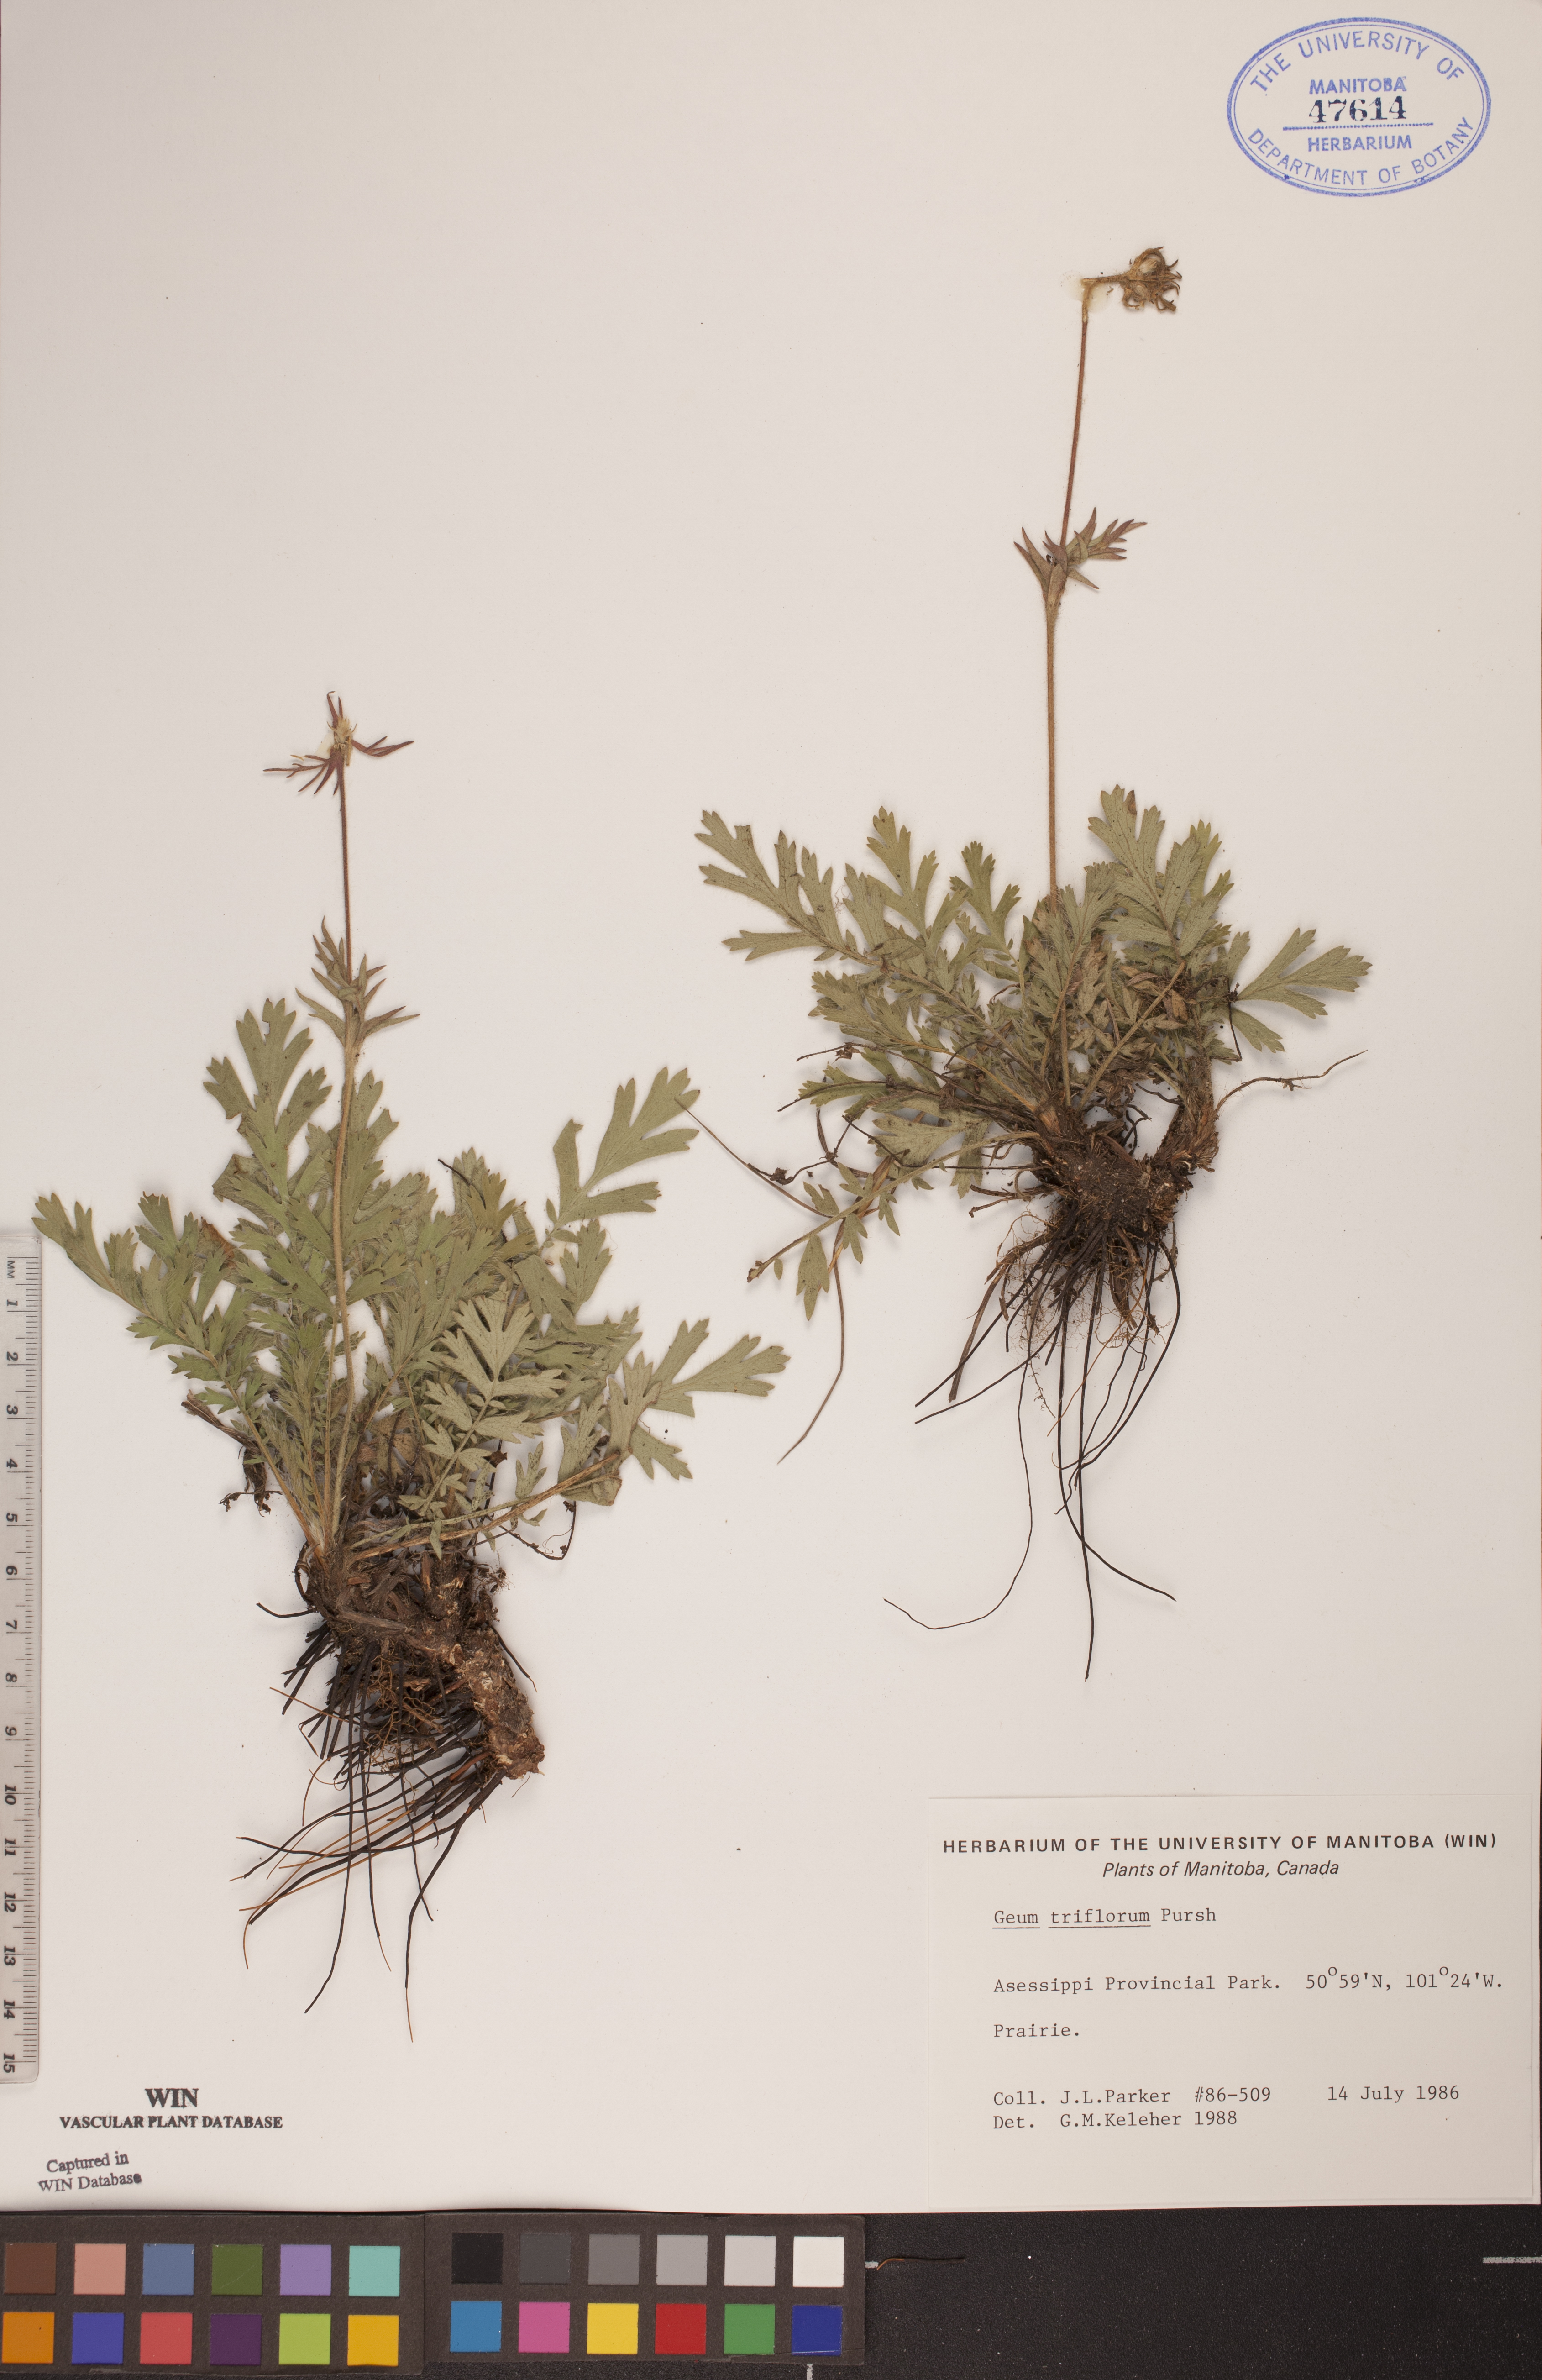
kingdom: Plantae
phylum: Tracheophyta
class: Magnoliopsida
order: Rosales
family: Rosaceae
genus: Geum
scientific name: Geum triflorum
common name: Old man's whiskers
